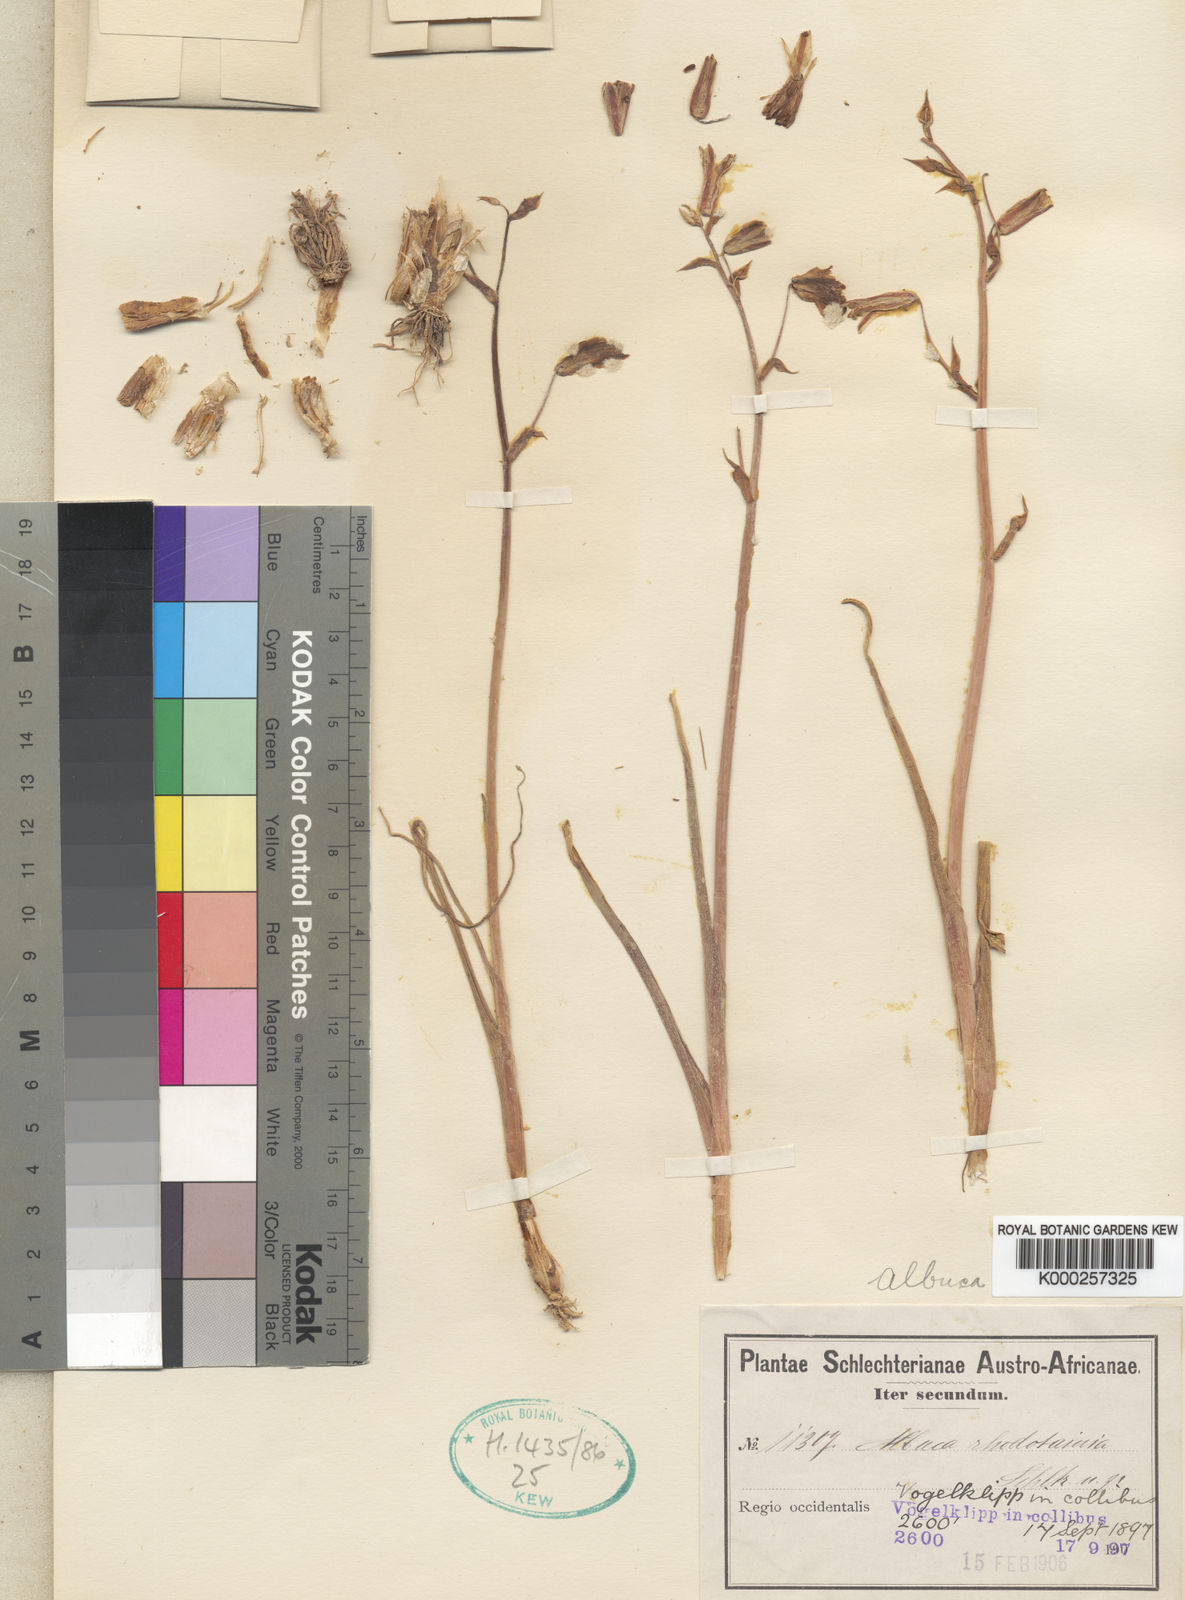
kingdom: Plantae
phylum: Tracheophyta
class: Liliopsida
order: Asparagales
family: Asparagaceae
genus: Albuca
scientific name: Albuca
